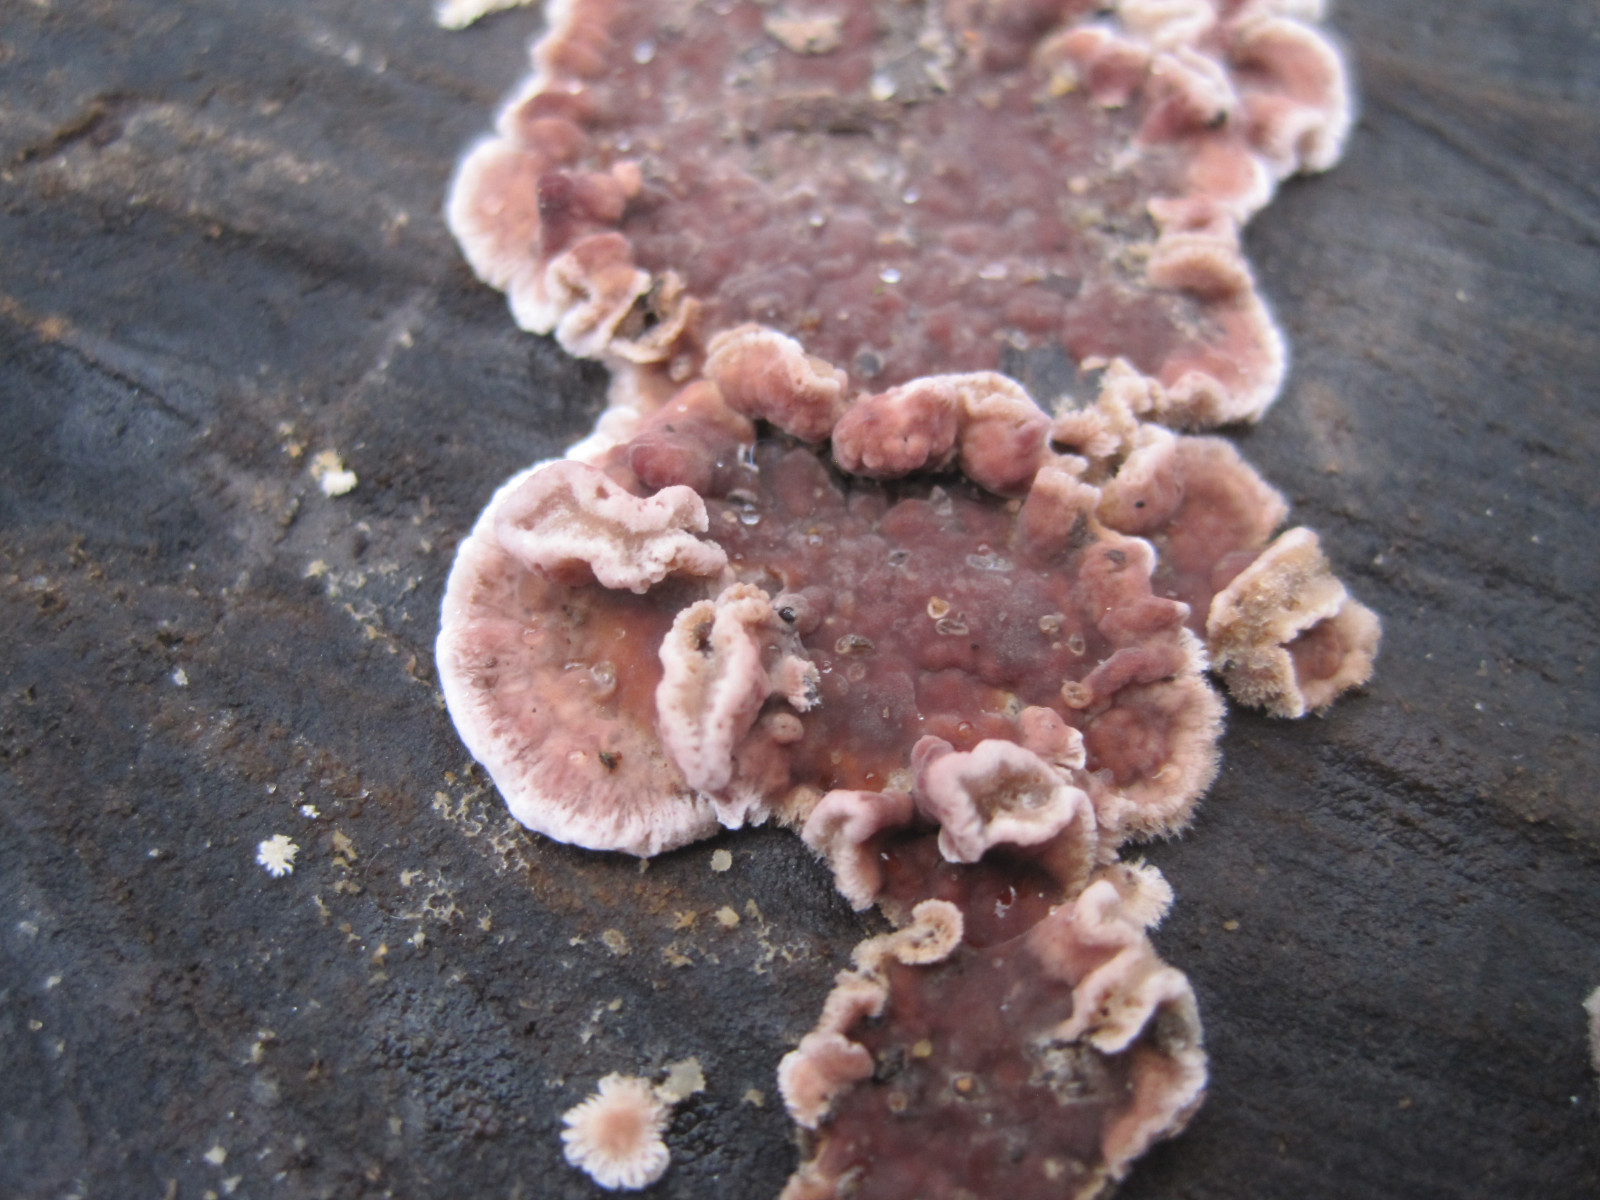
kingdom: Fungi
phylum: Basidiomycota
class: Agaricomycetes
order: Agaricales
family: Cyphellaceae
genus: Chondrostereum
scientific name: Chondrostereum purpureum
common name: purpurlædersvamp
